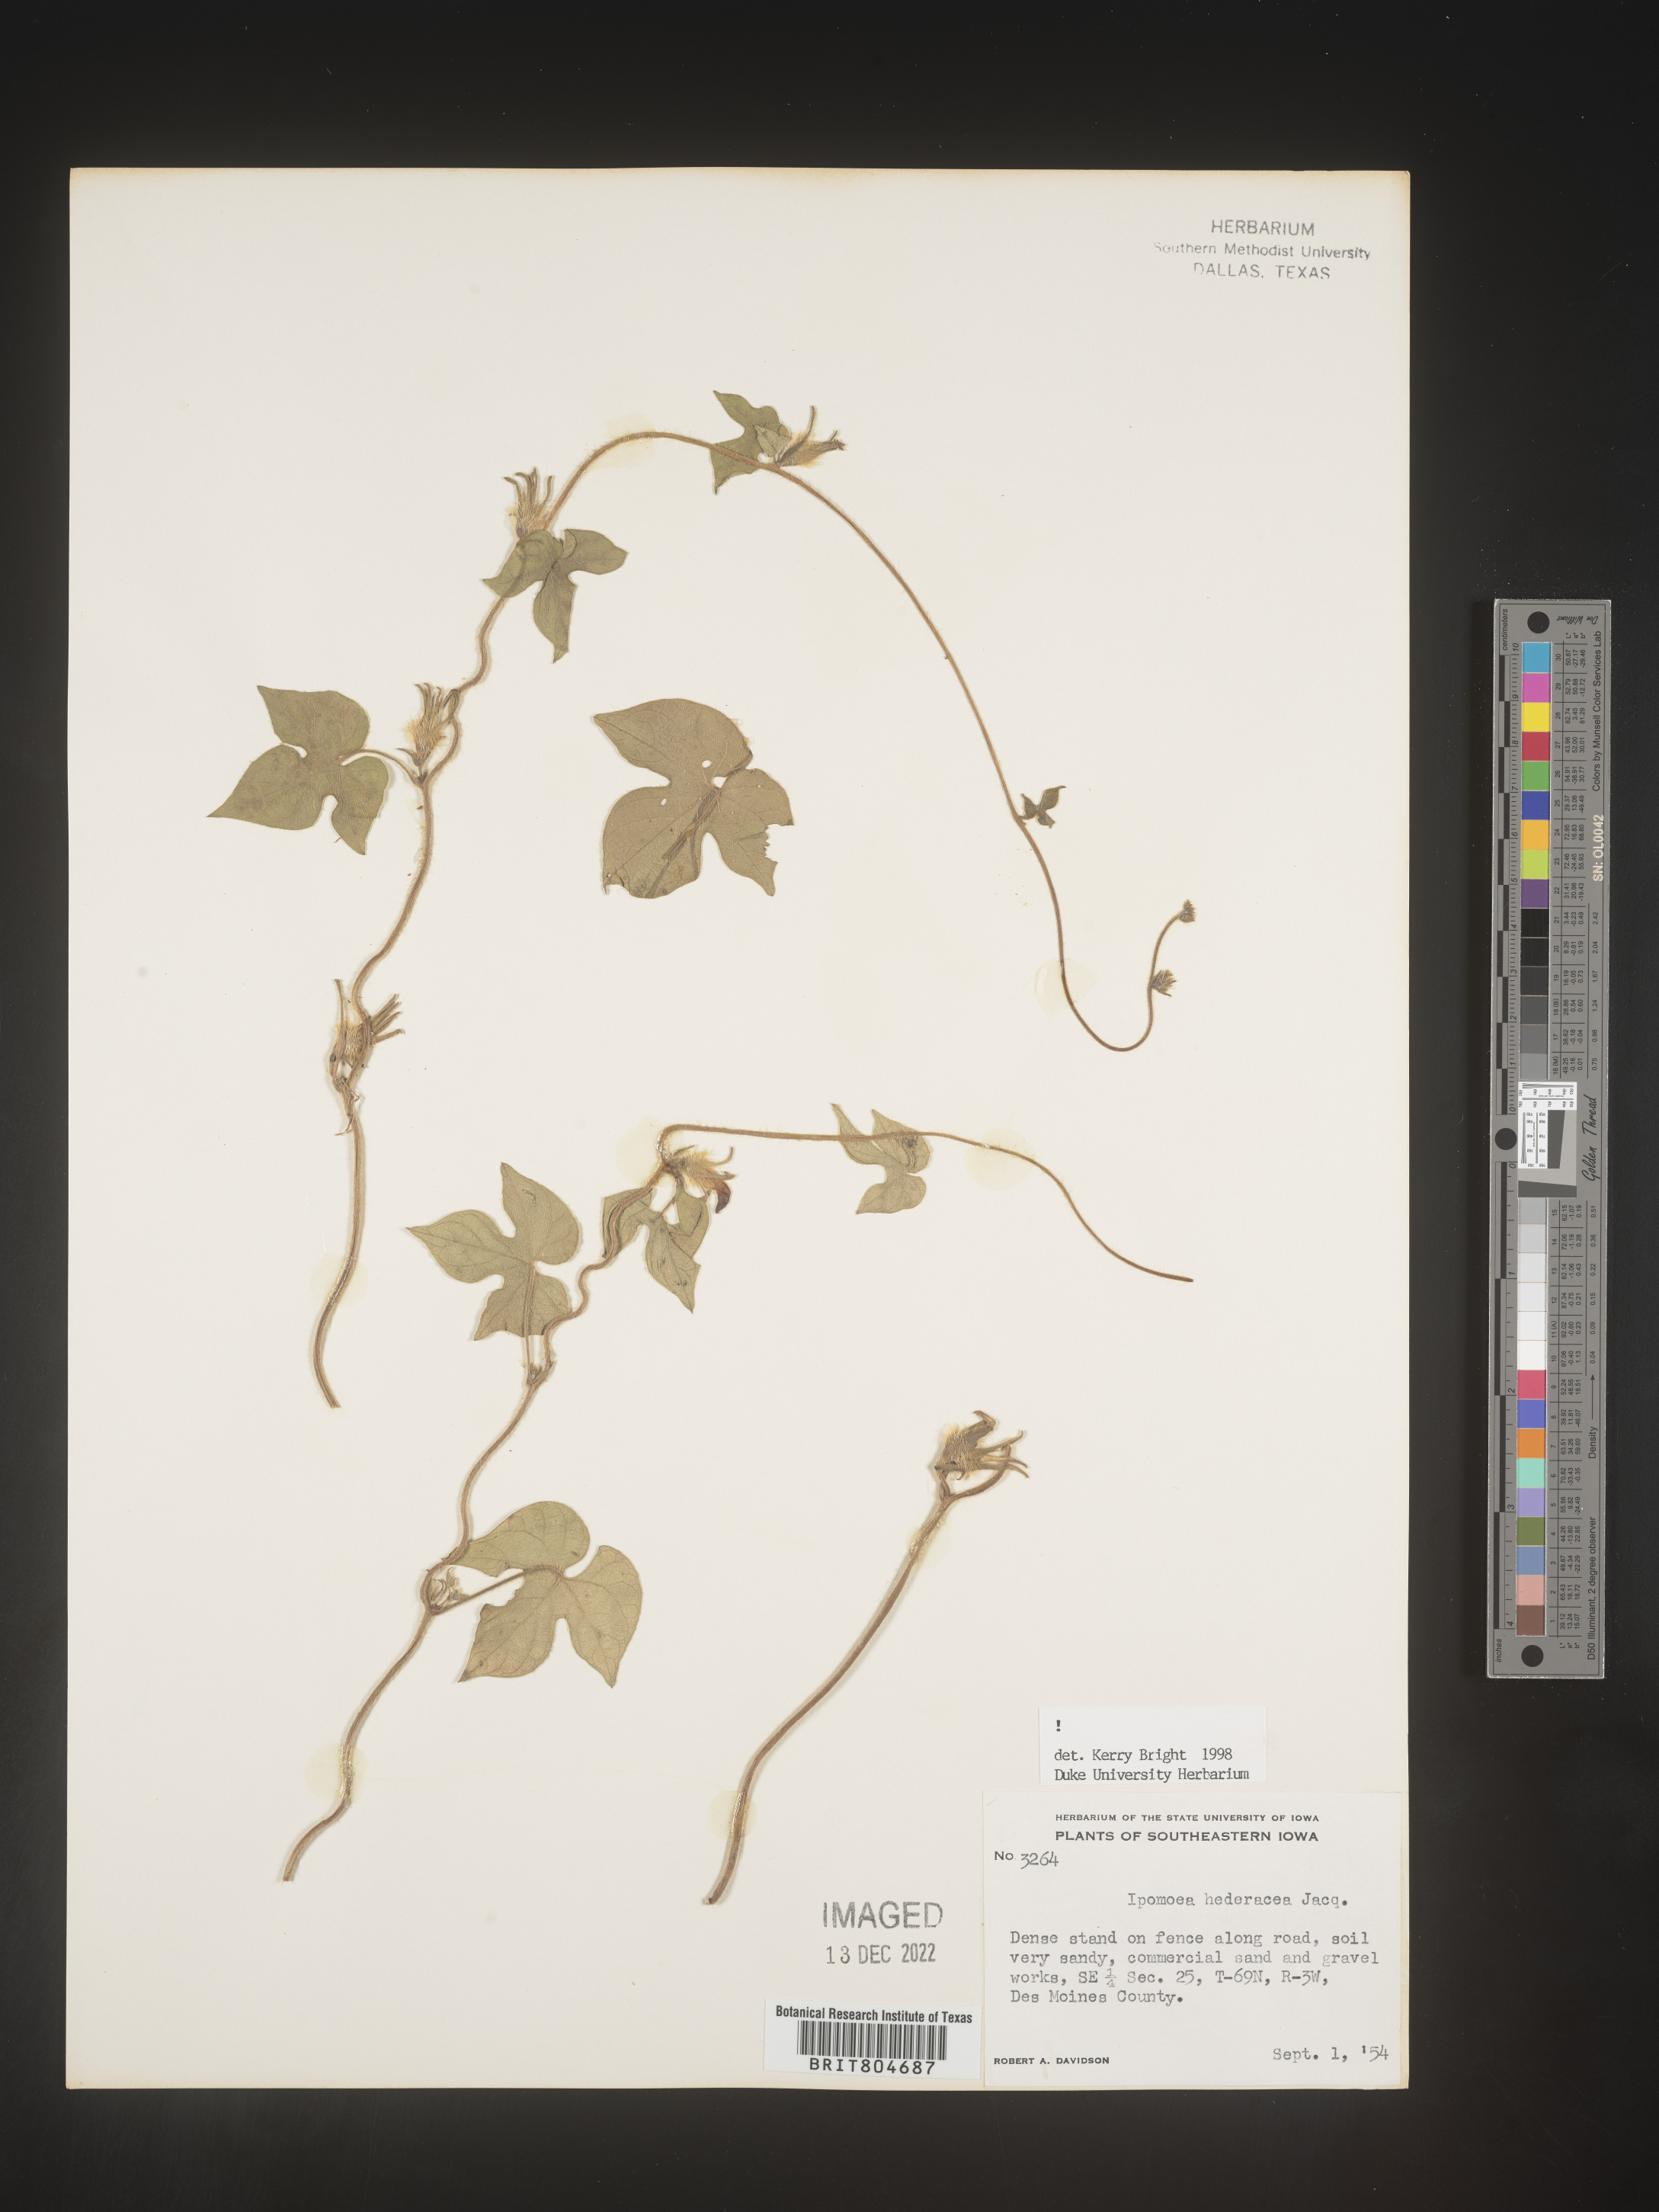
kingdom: Plantae
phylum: Tracheophyta
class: Magnoliopsida
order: Solanales
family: Convolvulaceae
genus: Ipomoea
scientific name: Ipomoea hederacea
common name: Ivy-leaved morning-glory
